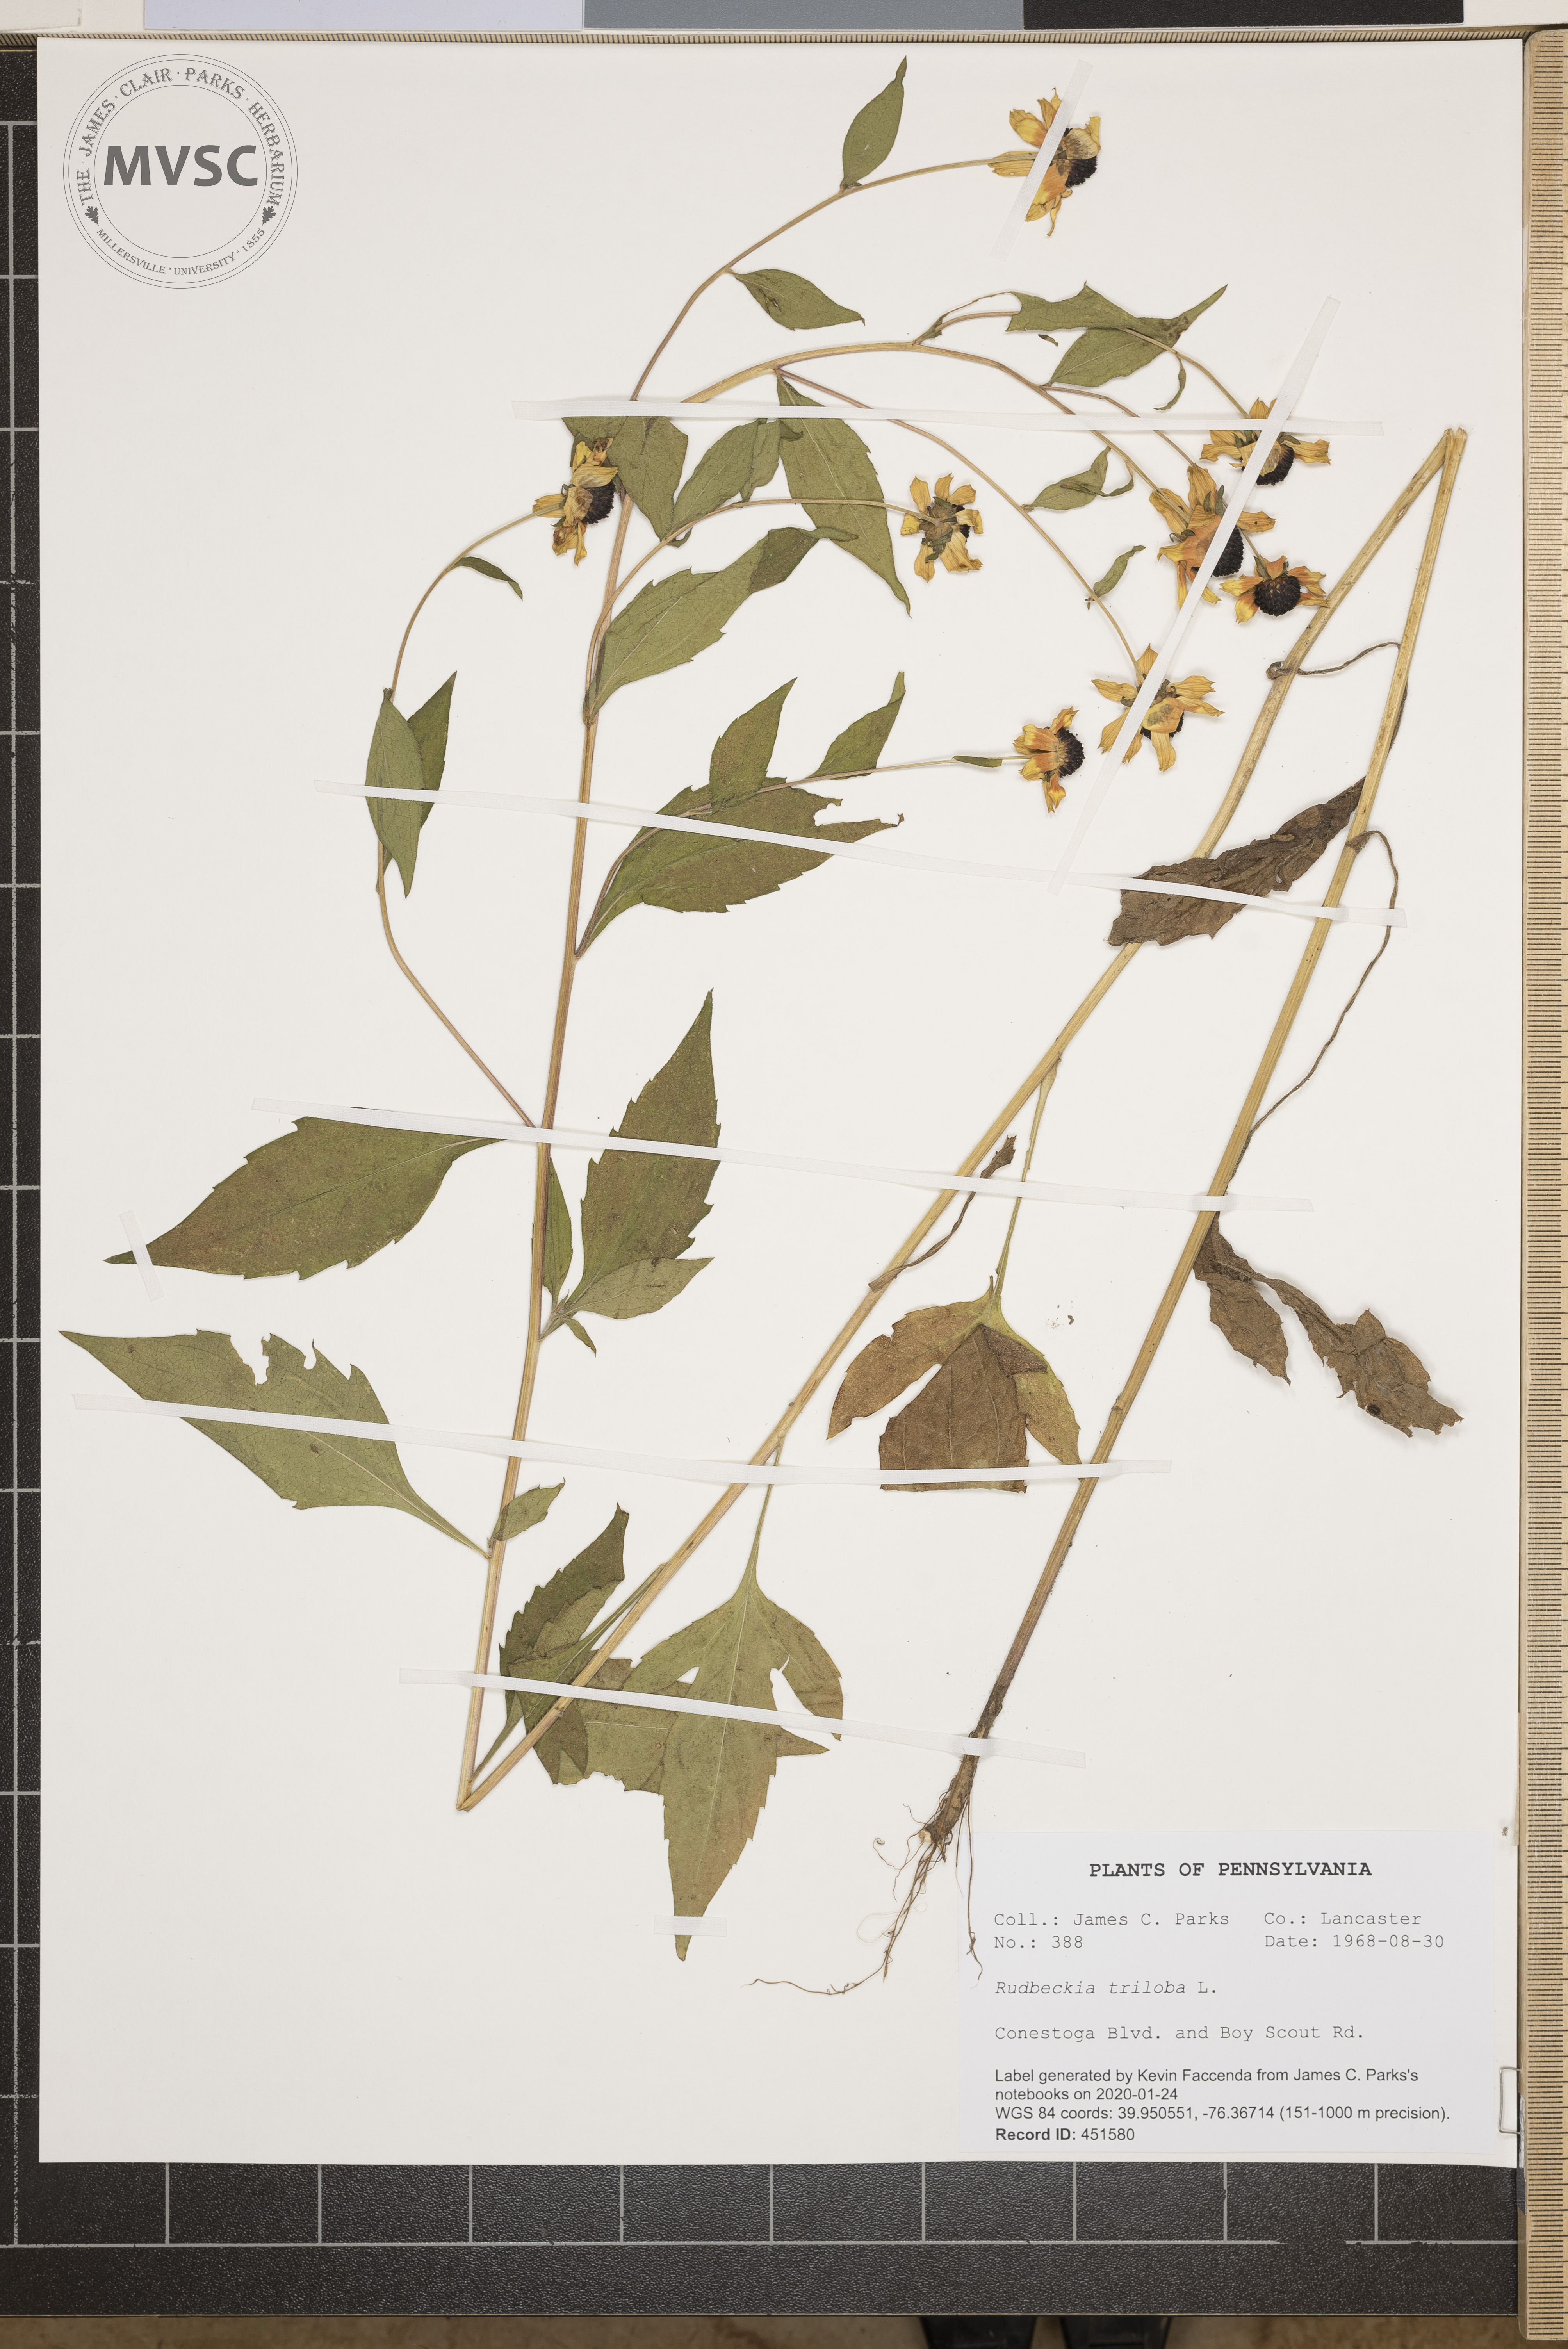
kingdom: Plantae
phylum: Tracheophyta
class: Magnoliopsida
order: Asterales
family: Asteraceae
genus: Rudbeckia
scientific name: Rudbeckia triloba
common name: Thin-leaved coneflower
